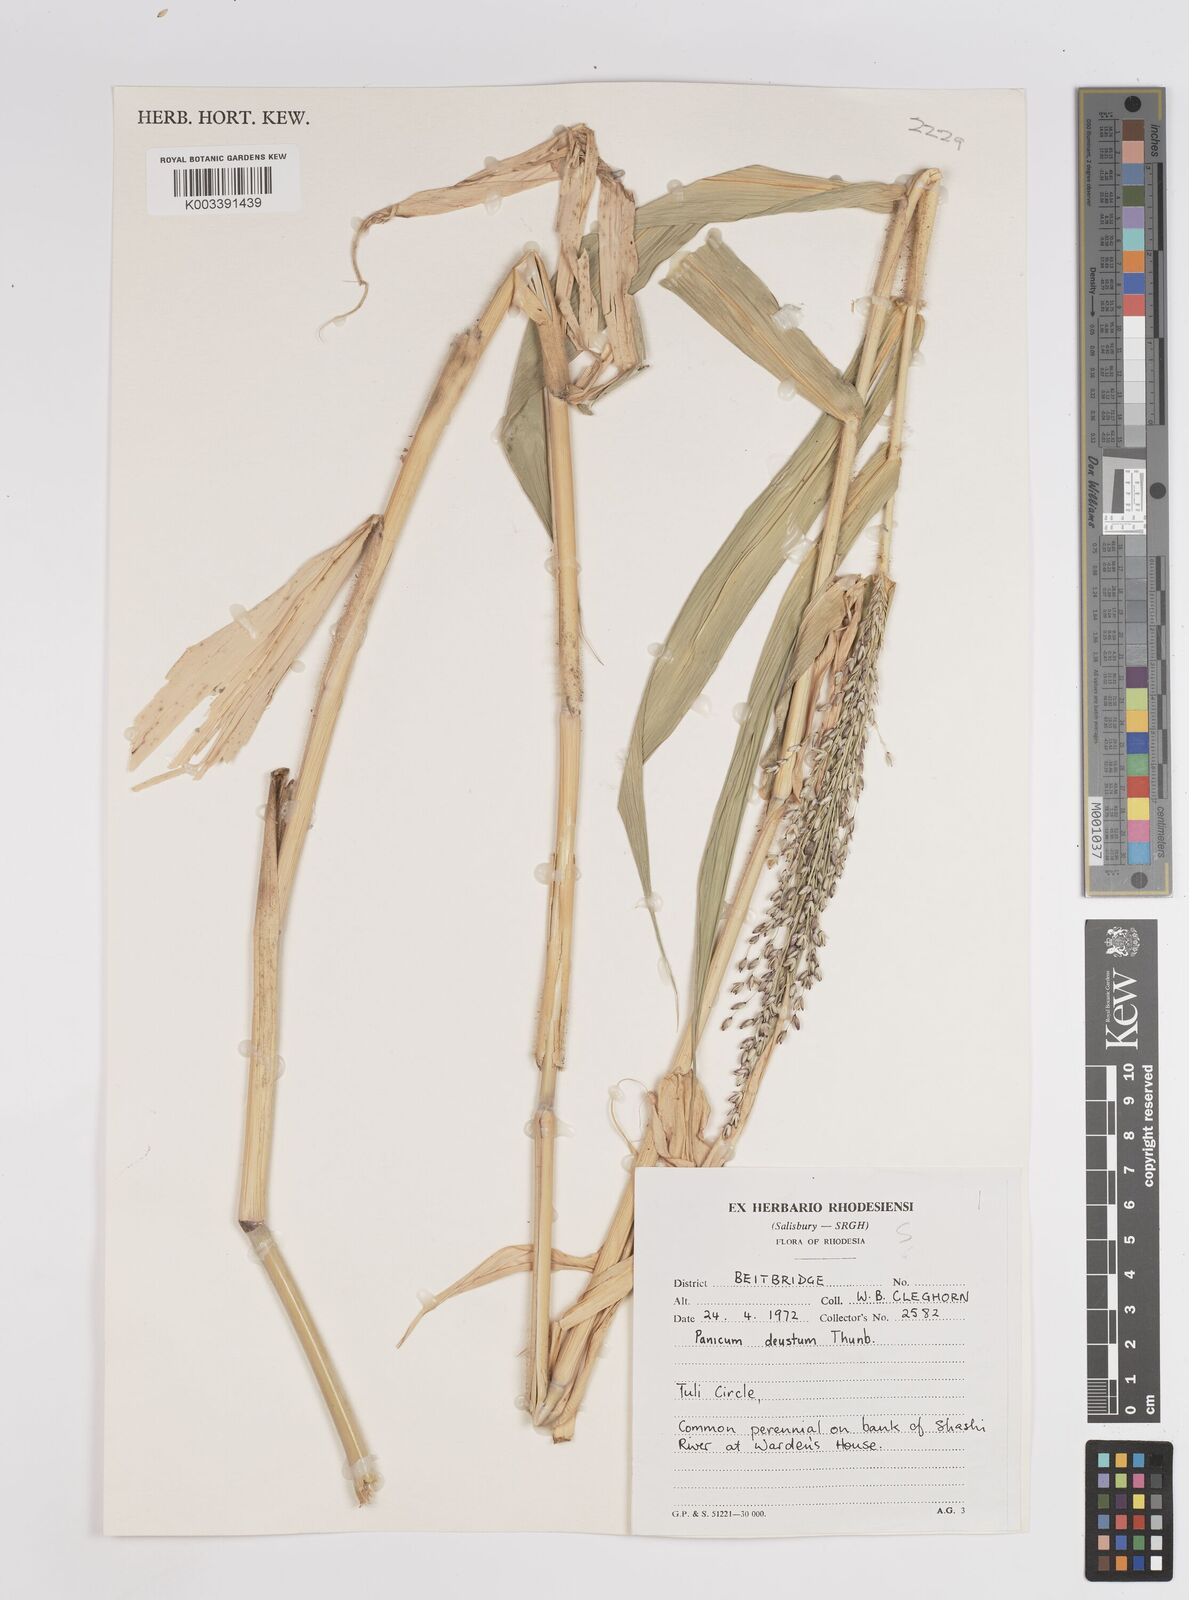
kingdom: Plantae
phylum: Tracheophyta
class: Liliopsida
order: Poales
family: Poaceae
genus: Panicum
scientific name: Panicum deustum
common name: Reed panicum
